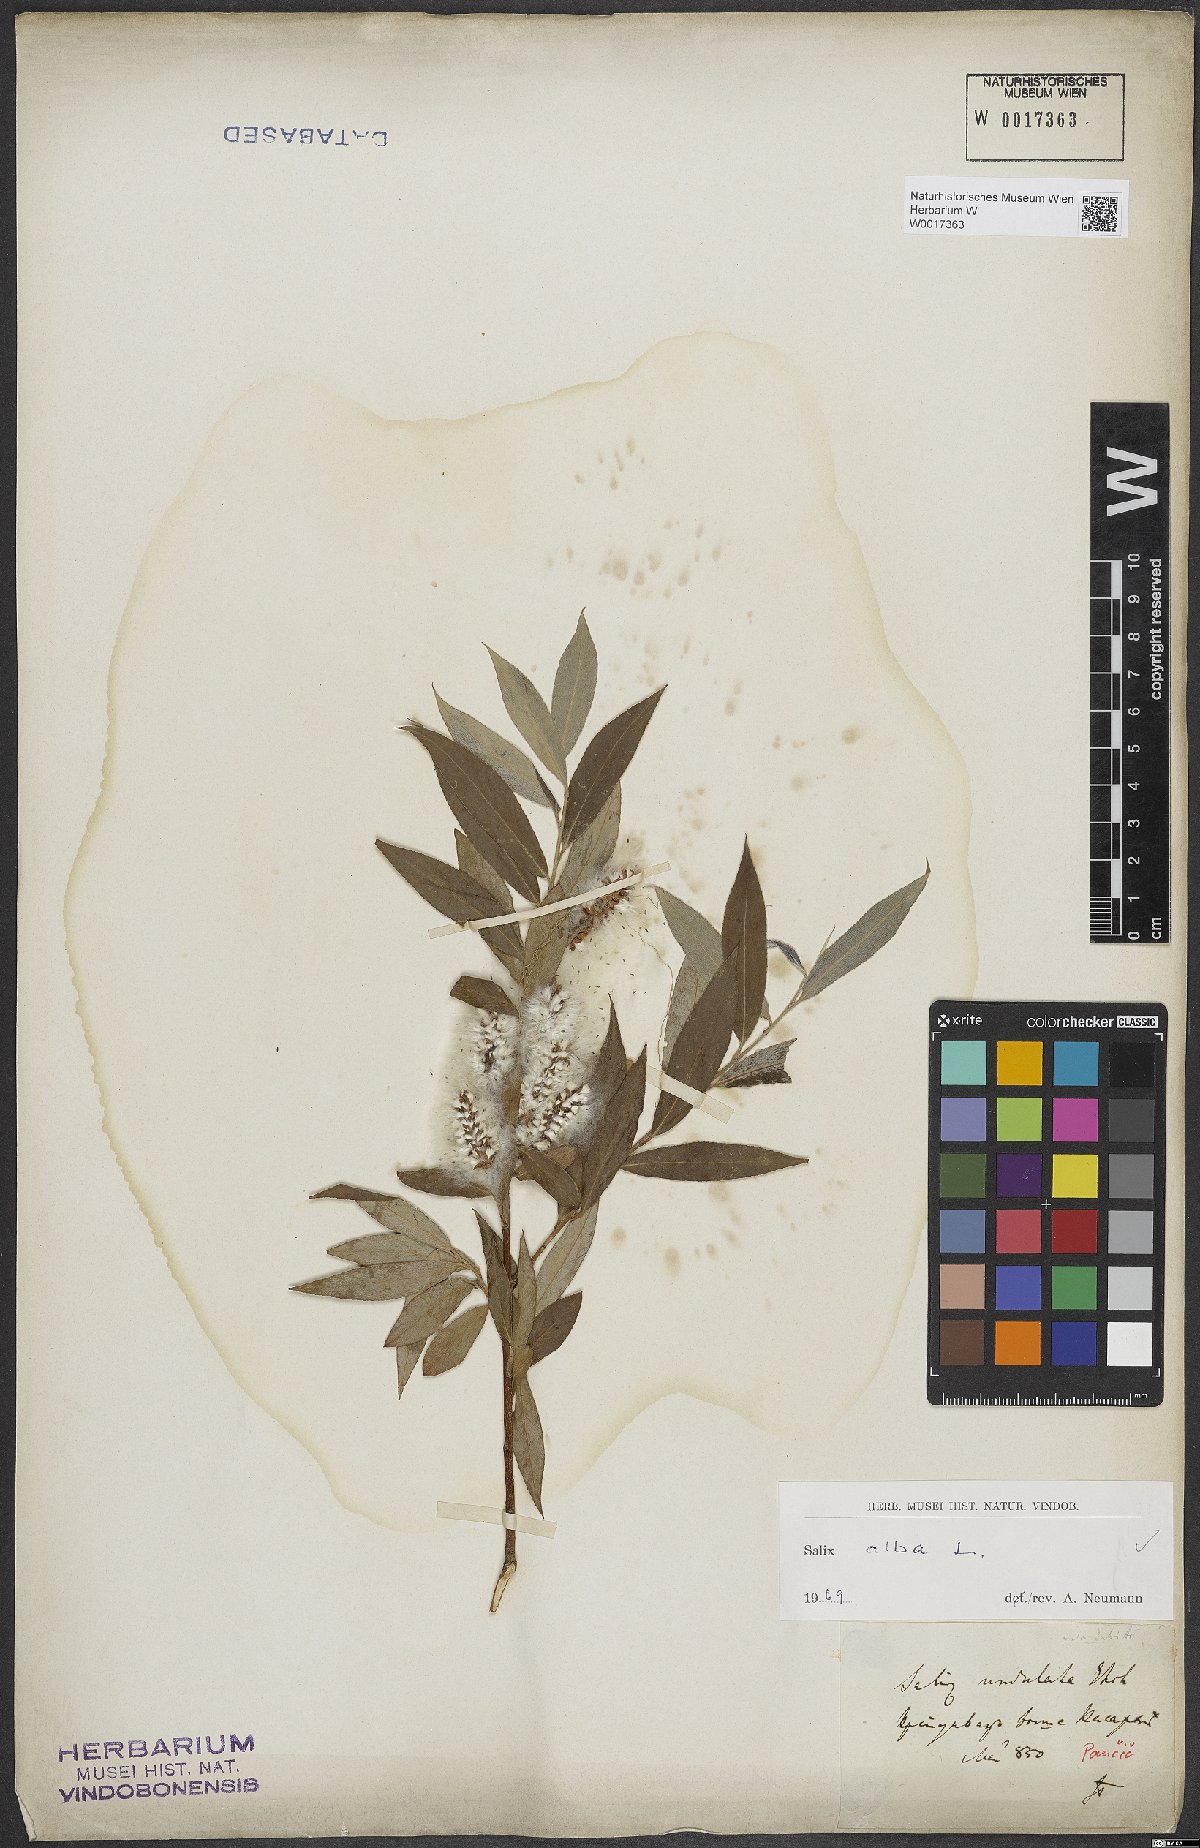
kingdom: Plantae
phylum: Tracheophyta
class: Magnoliopsida
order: Malpighiales
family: Salicaceae
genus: Salix
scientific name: Salix alba
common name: White willow
